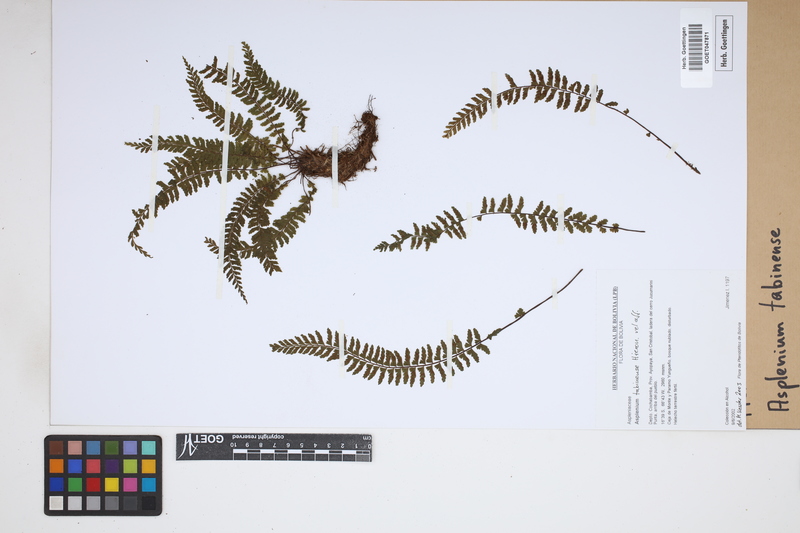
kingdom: Plantae
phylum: Tracheophyta
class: Polypodiopsida
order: Polypodiales
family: Aspleniaceae
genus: Asplenium
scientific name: Asplenium tabinense
